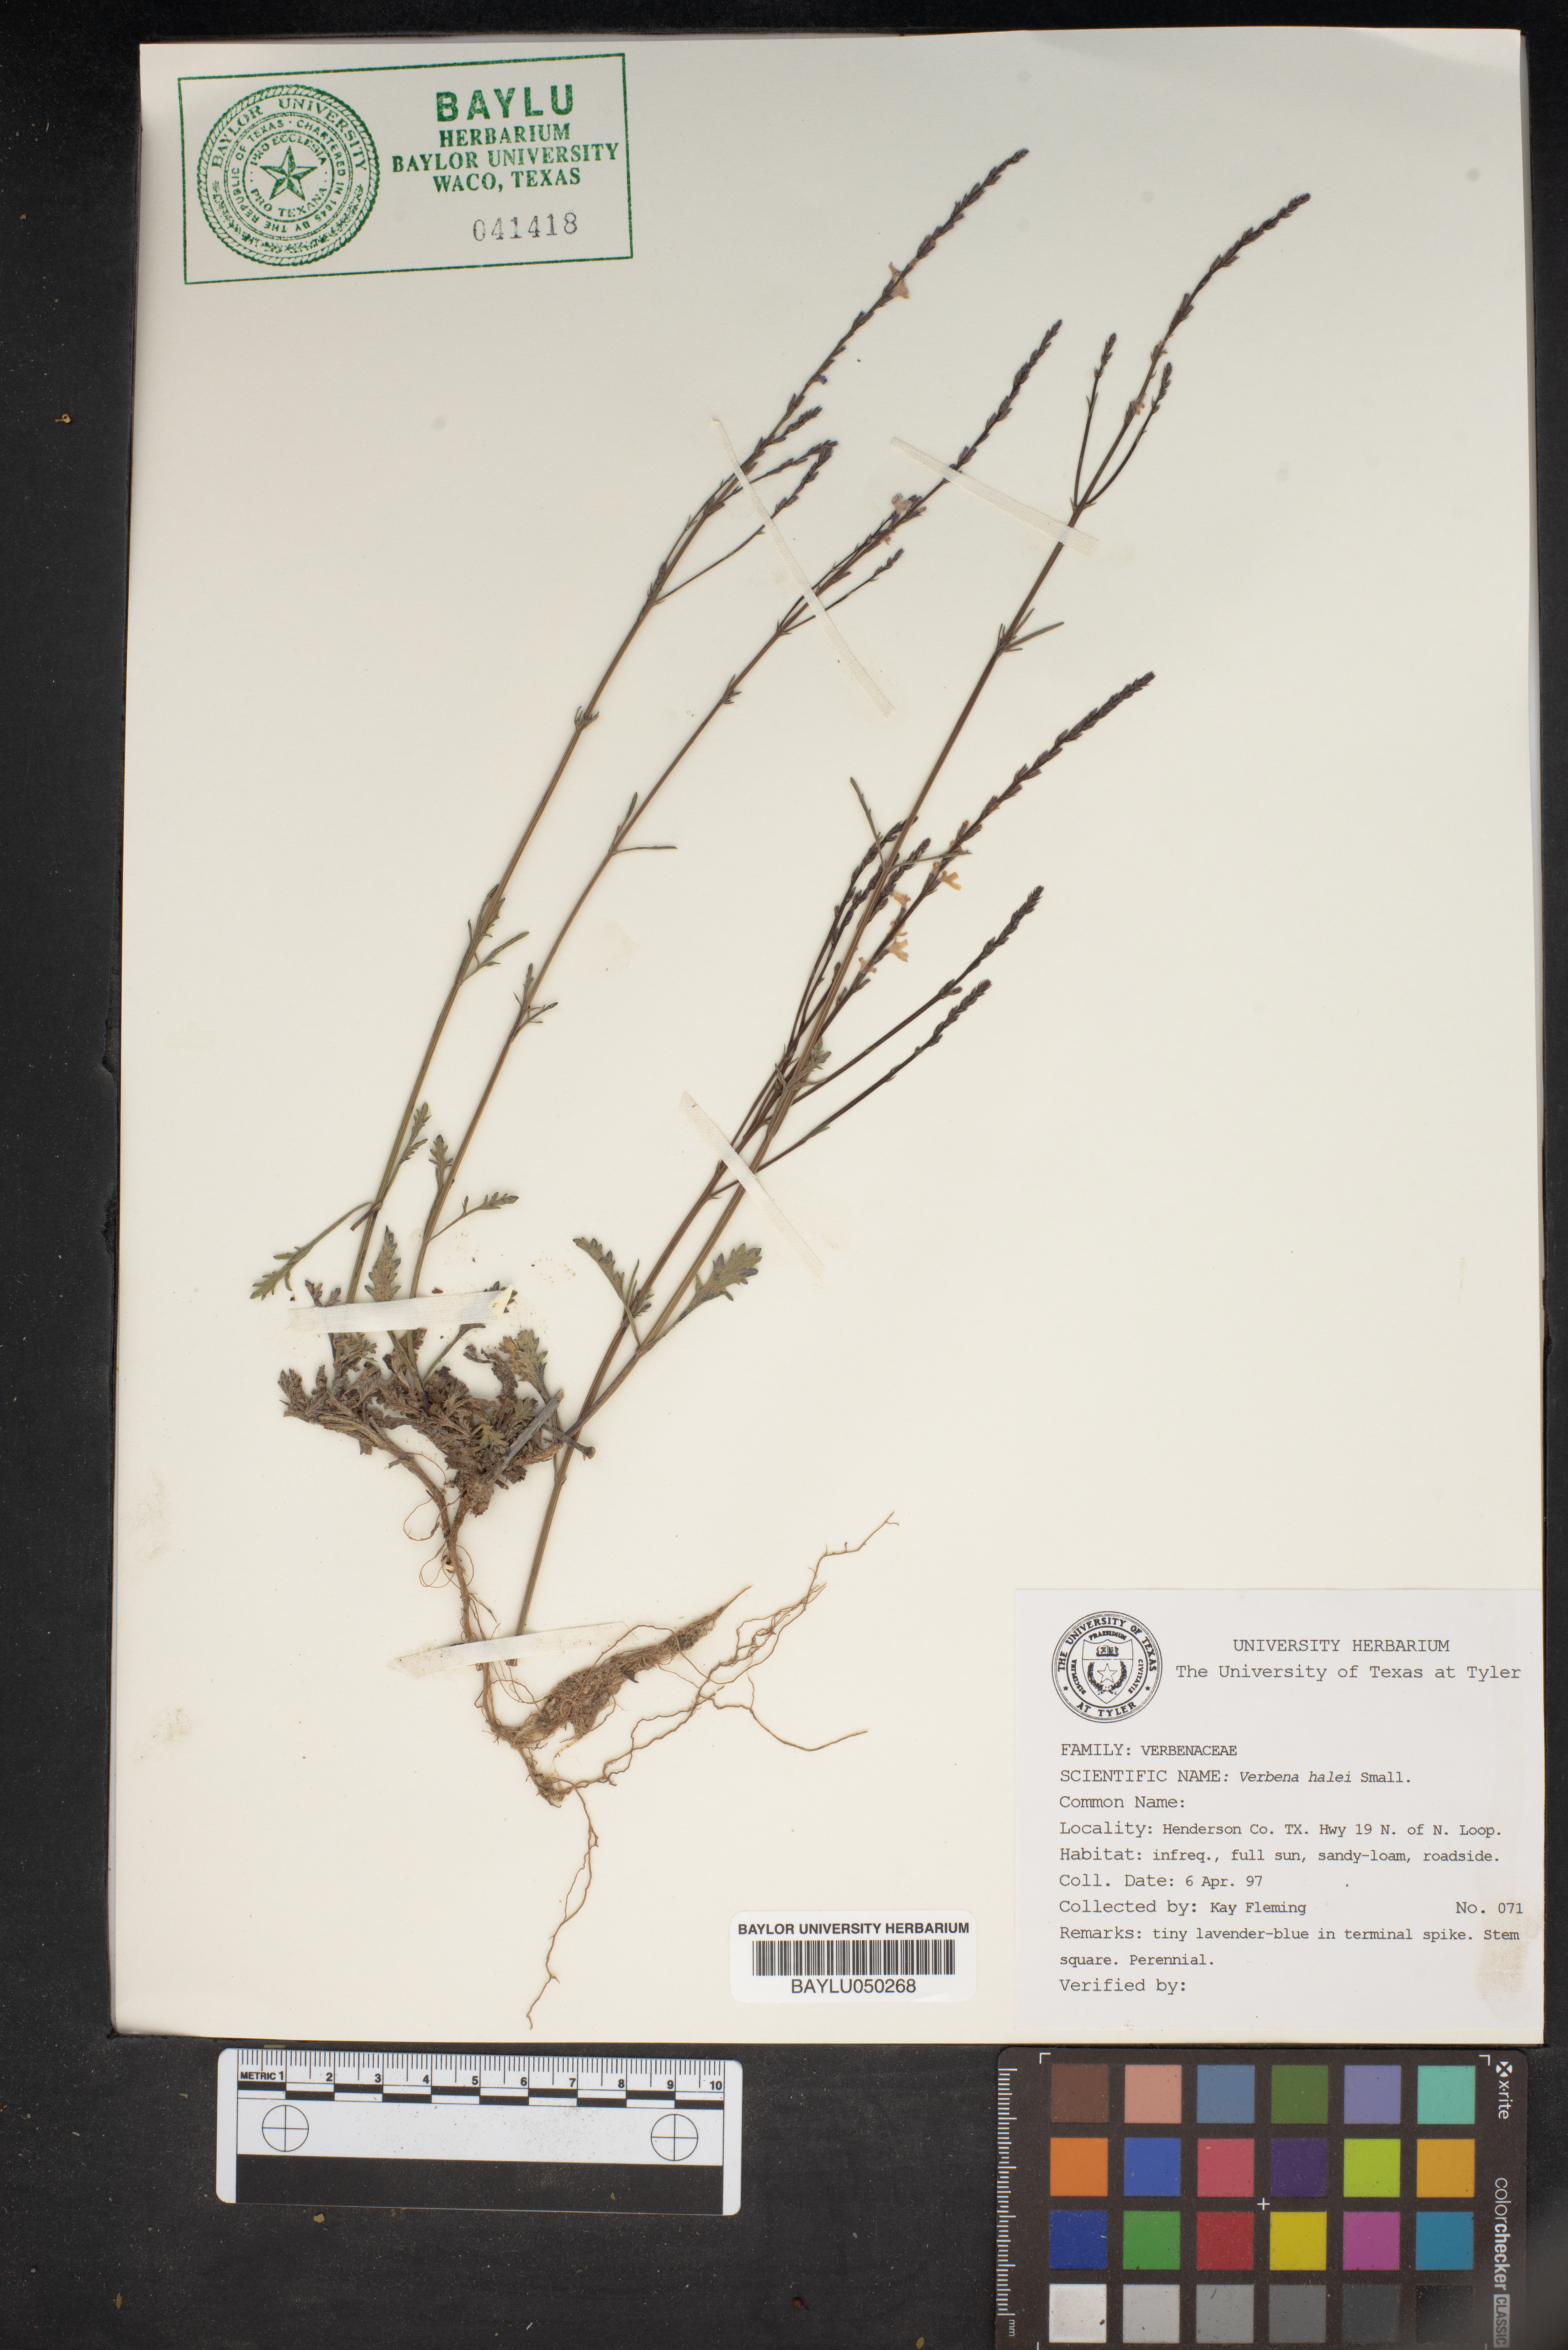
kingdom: Plantae
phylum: Tracheophyta
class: Magnoliopsida
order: Lamiales
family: Verbenaceae
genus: Verbena
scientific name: Verbena halei
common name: Texas vervain
